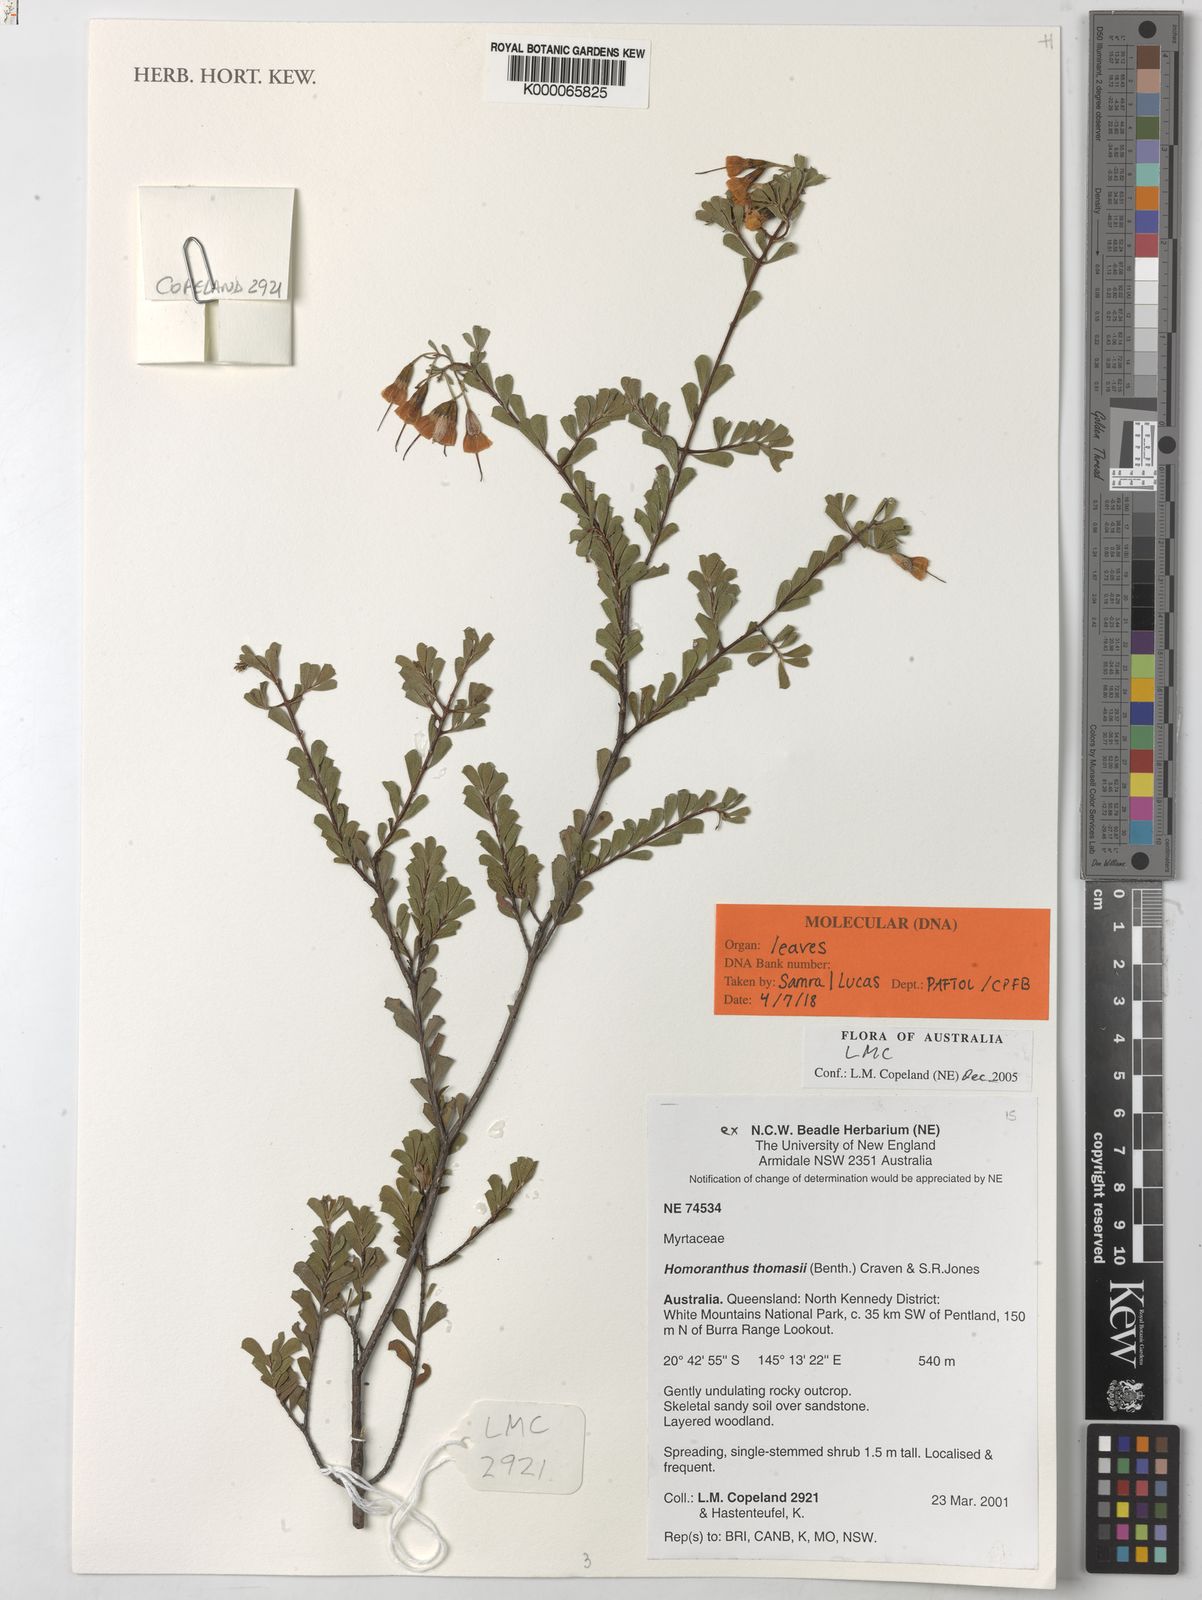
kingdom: Plantae
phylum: Tracheophyta
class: Magnoliopsida
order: Myrtales
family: Myrtaceae
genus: Homoranthus
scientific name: Homoranthus thomasii
